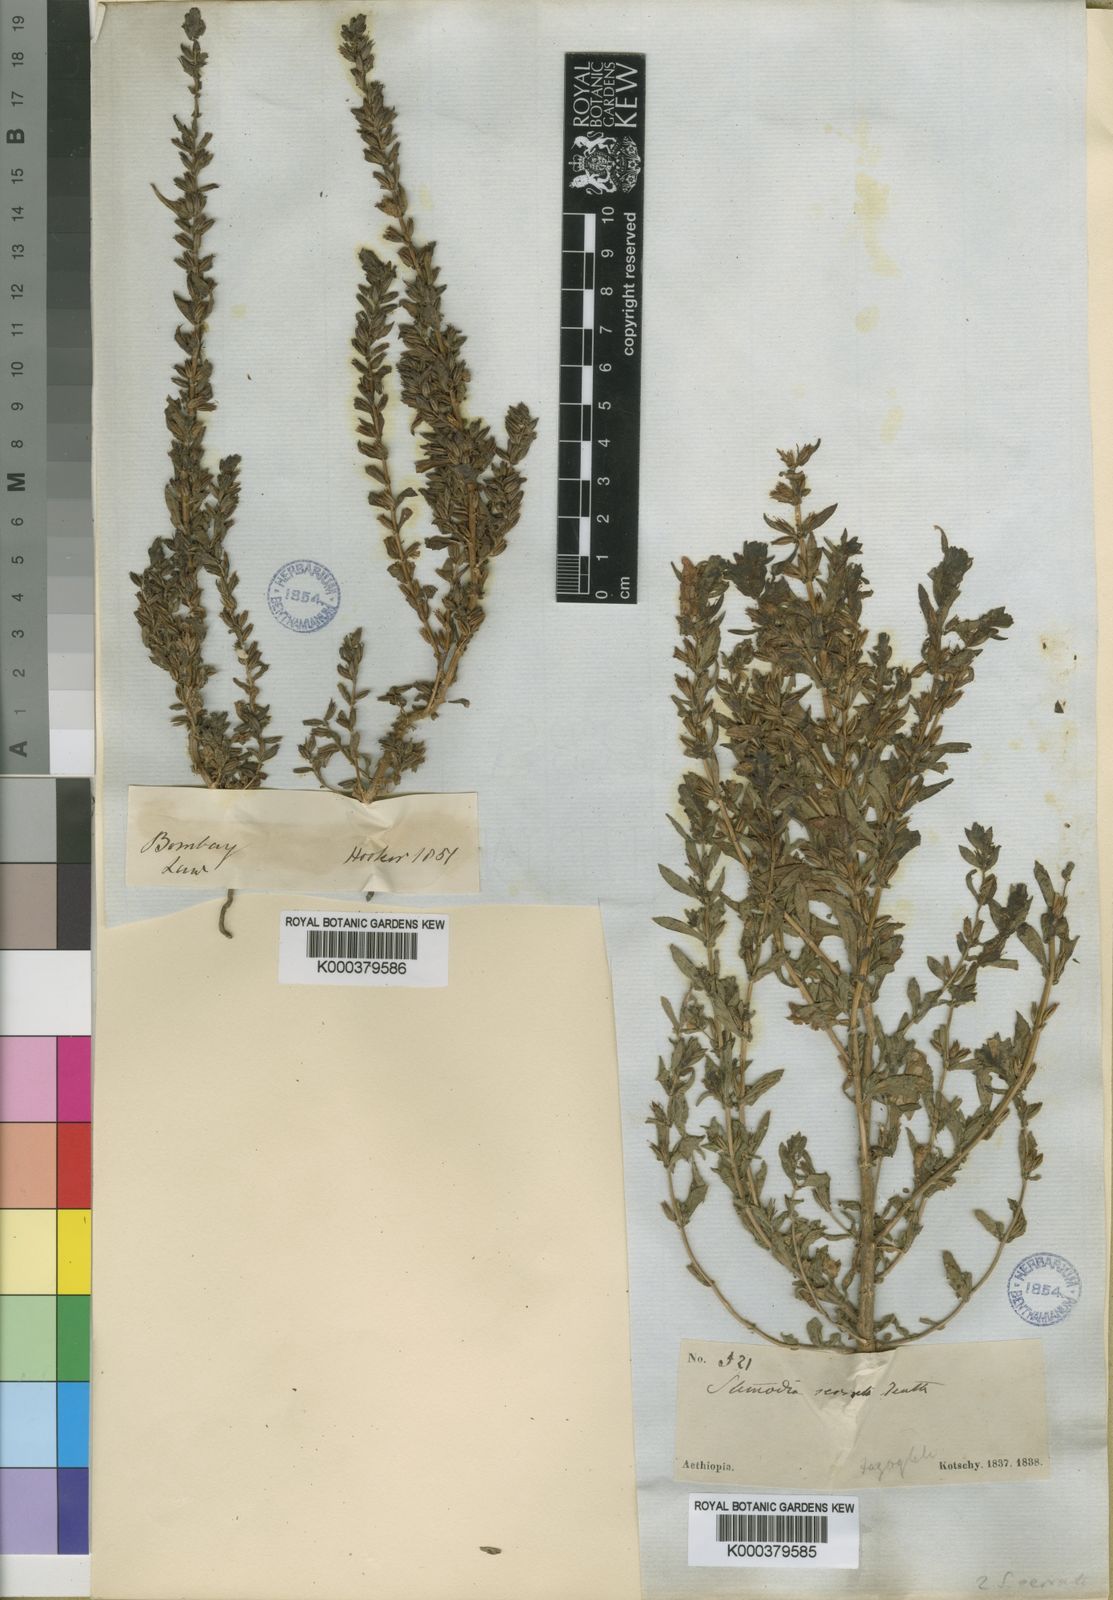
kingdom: Plantae
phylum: Tracheophyta
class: Magnoliopsida
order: Lamiales
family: Plantaginaceae
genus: Stemodia
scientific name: Stemodia serrata
